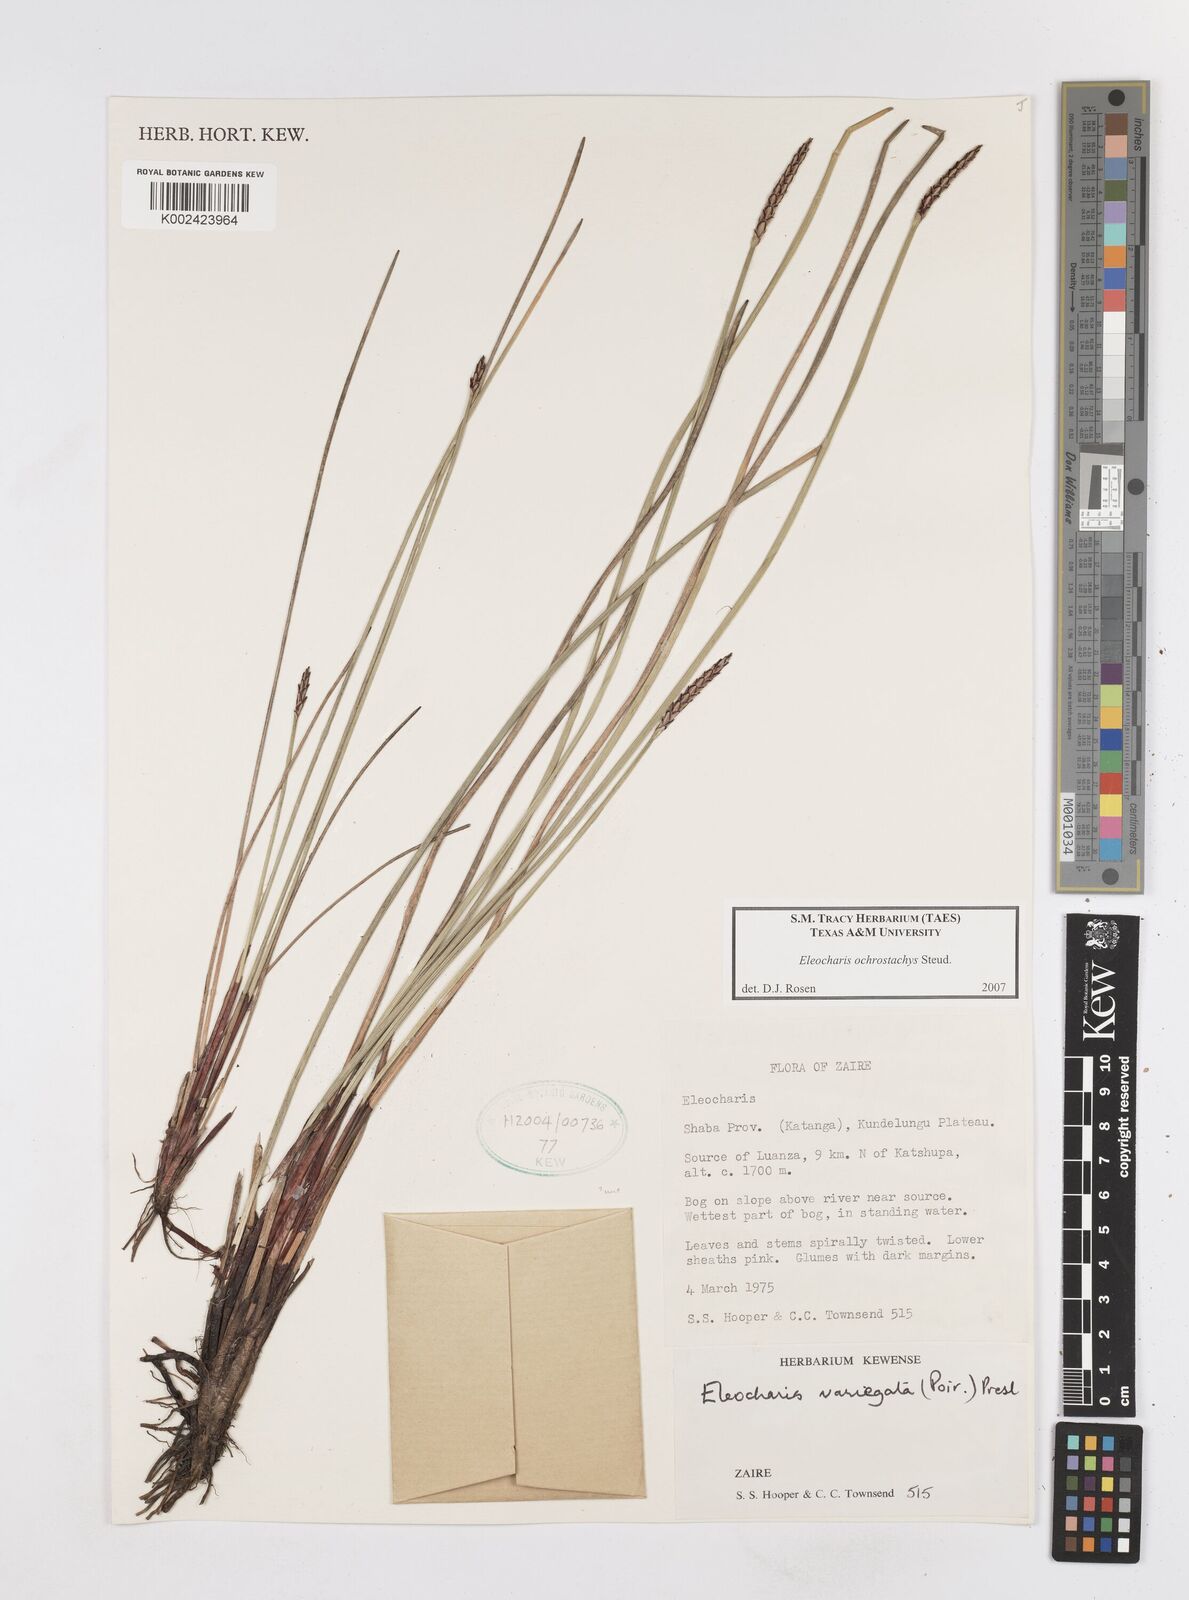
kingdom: Plantae
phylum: Tracheophyta
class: Liliopsida
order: Poales
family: Cyperaceae
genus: Eleocharis
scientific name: Eleocharis ochrostachys
